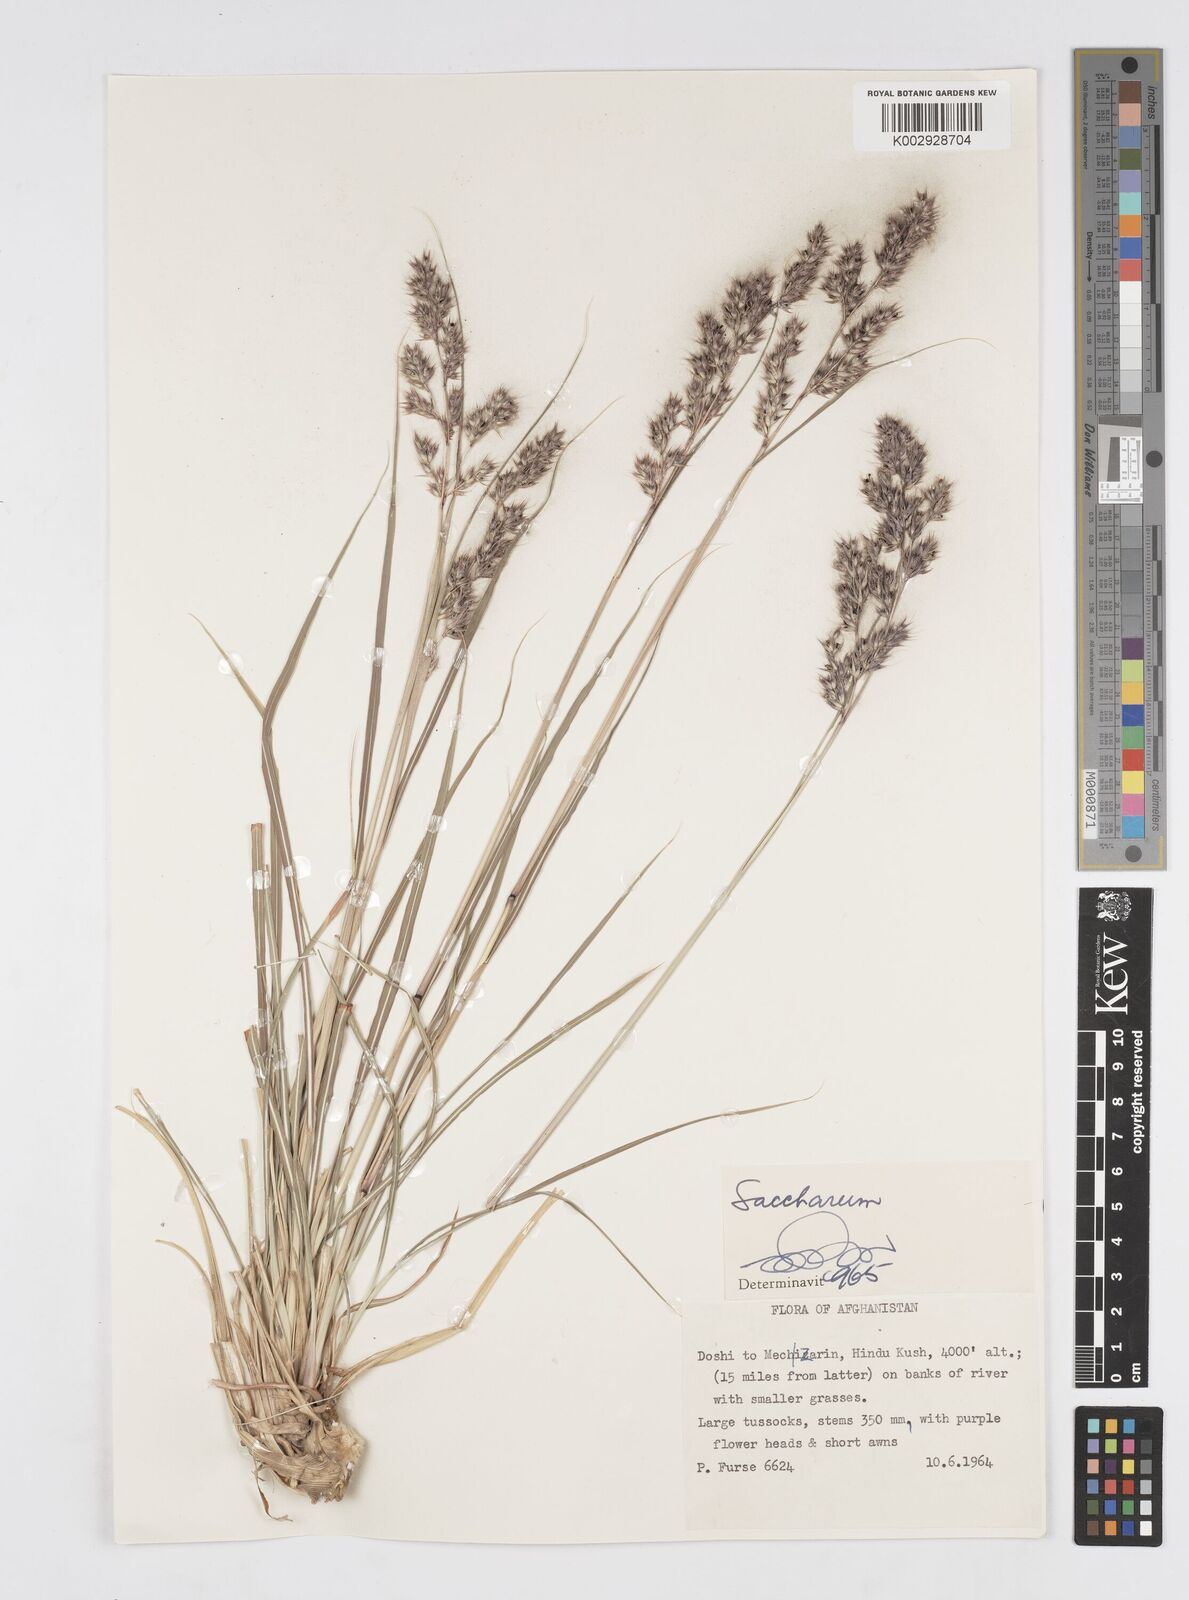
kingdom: Plantae
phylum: Tracheophyta
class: Liliopsida
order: Poales
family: Poaceae
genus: Saccharum
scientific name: Saccharum
